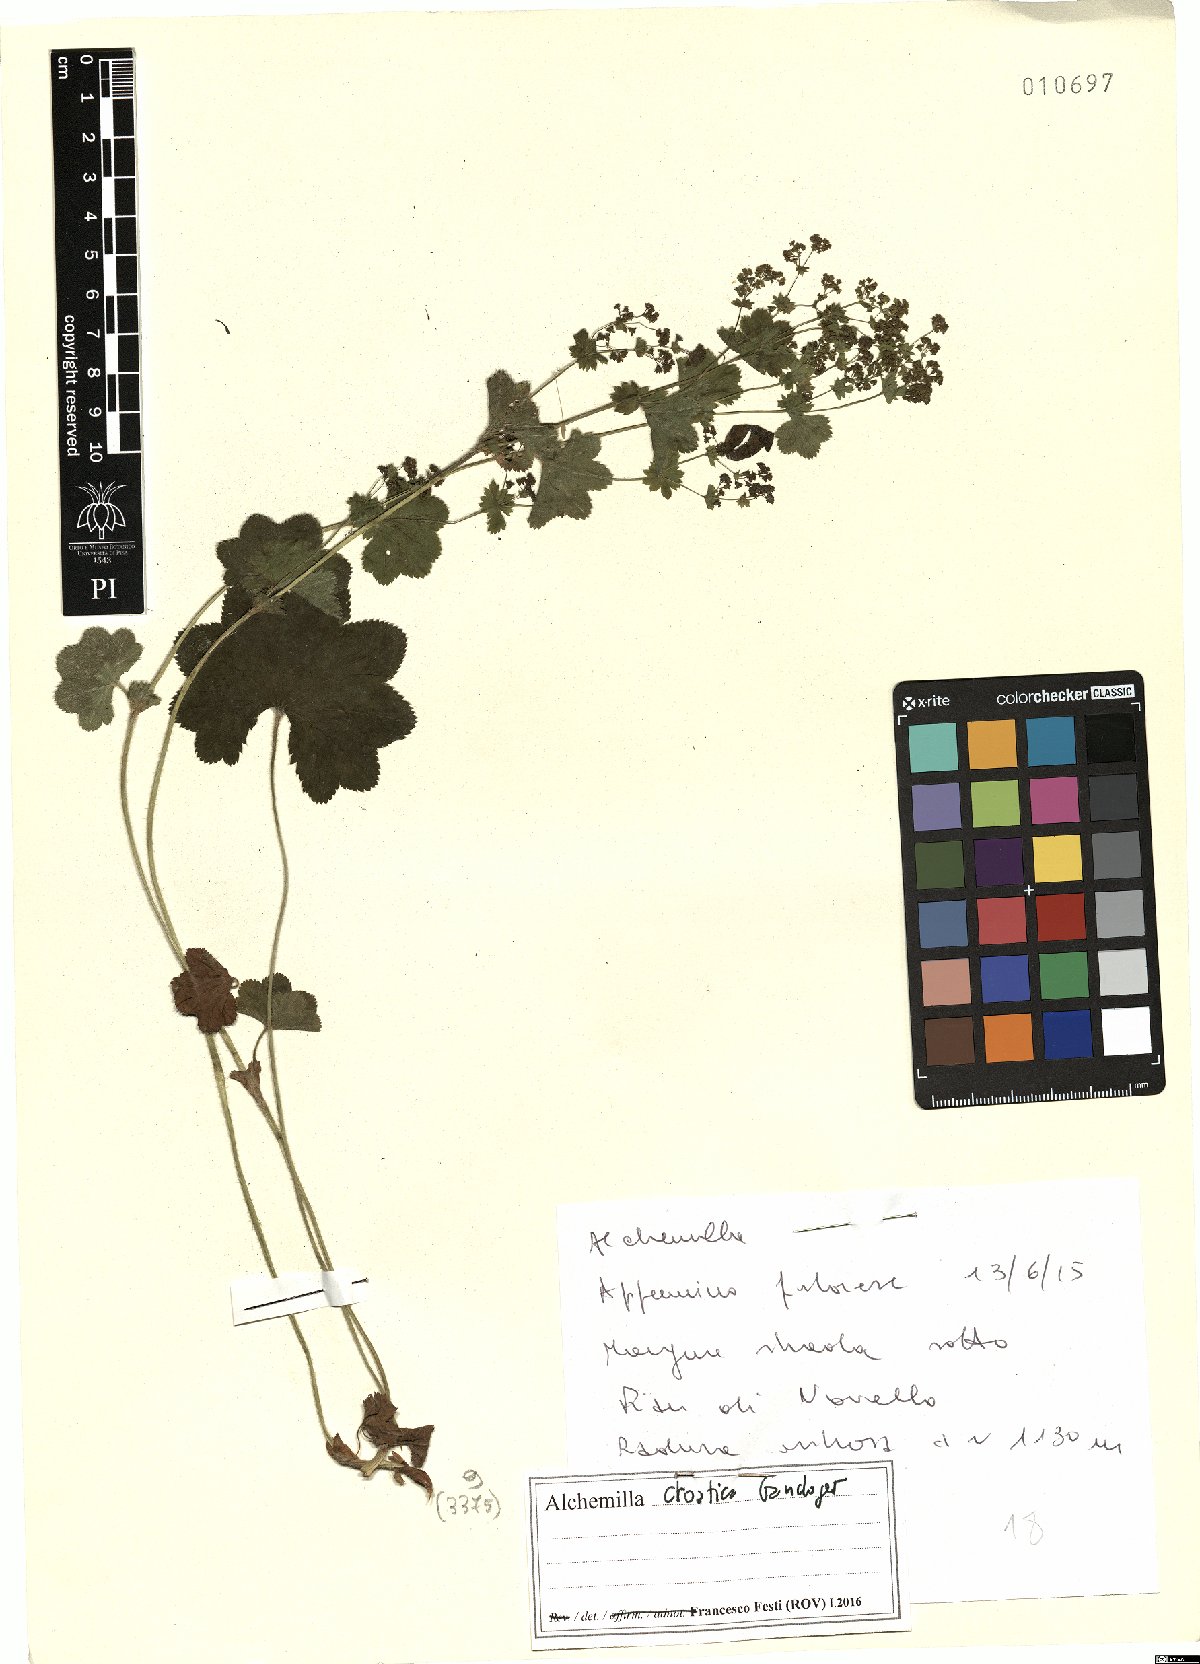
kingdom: Plantae
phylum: Tracheophyta
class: Magnoliopsida
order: Rosales
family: Rosaceae
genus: Alchemilla
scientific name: Alchemilla croatica
